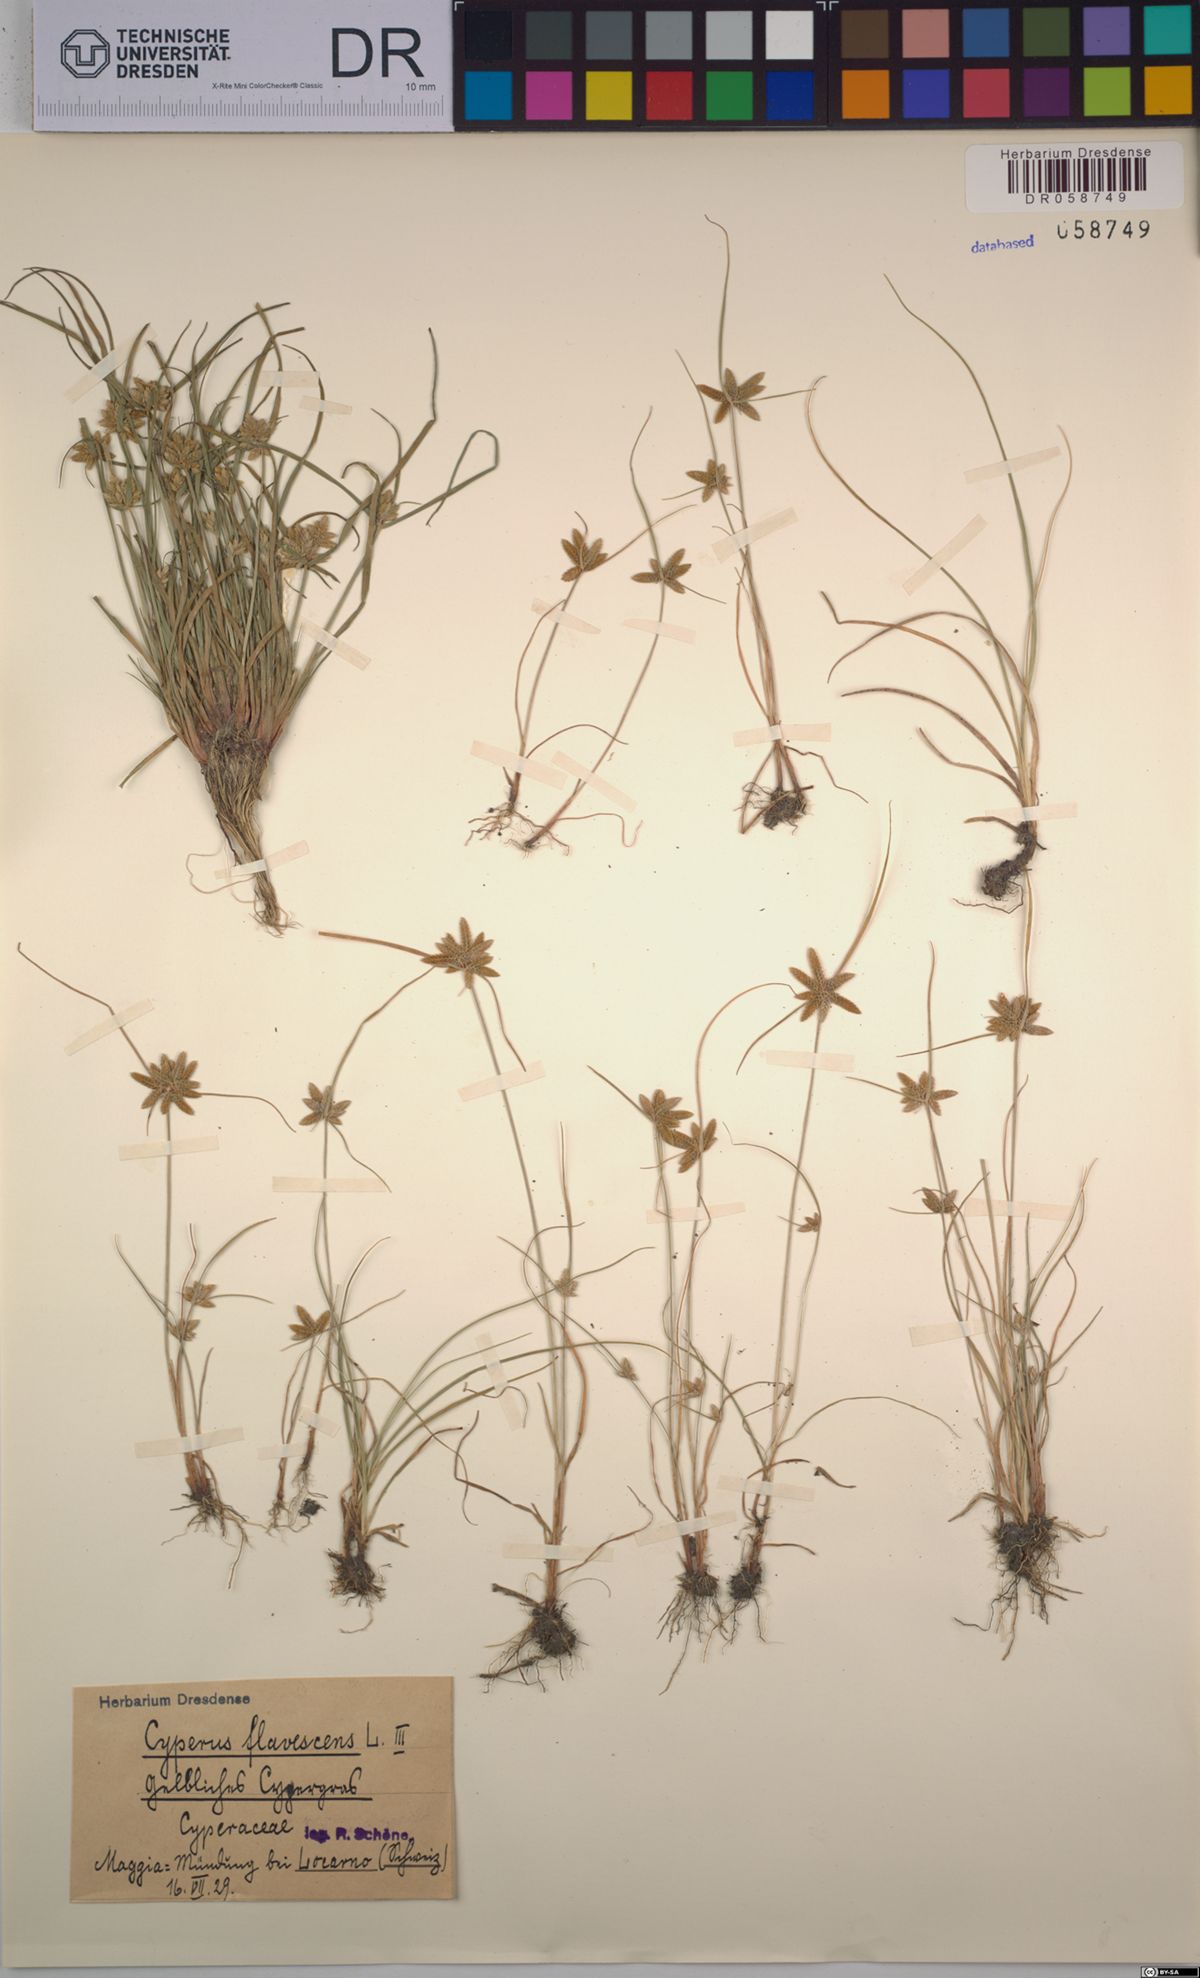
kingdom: Plantae
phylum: Tracheophyta
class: Liliopsida
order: Poales
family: Cyperaceae
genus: Cyperus
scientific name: Cyperus flavescens
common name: Yellow galingale
